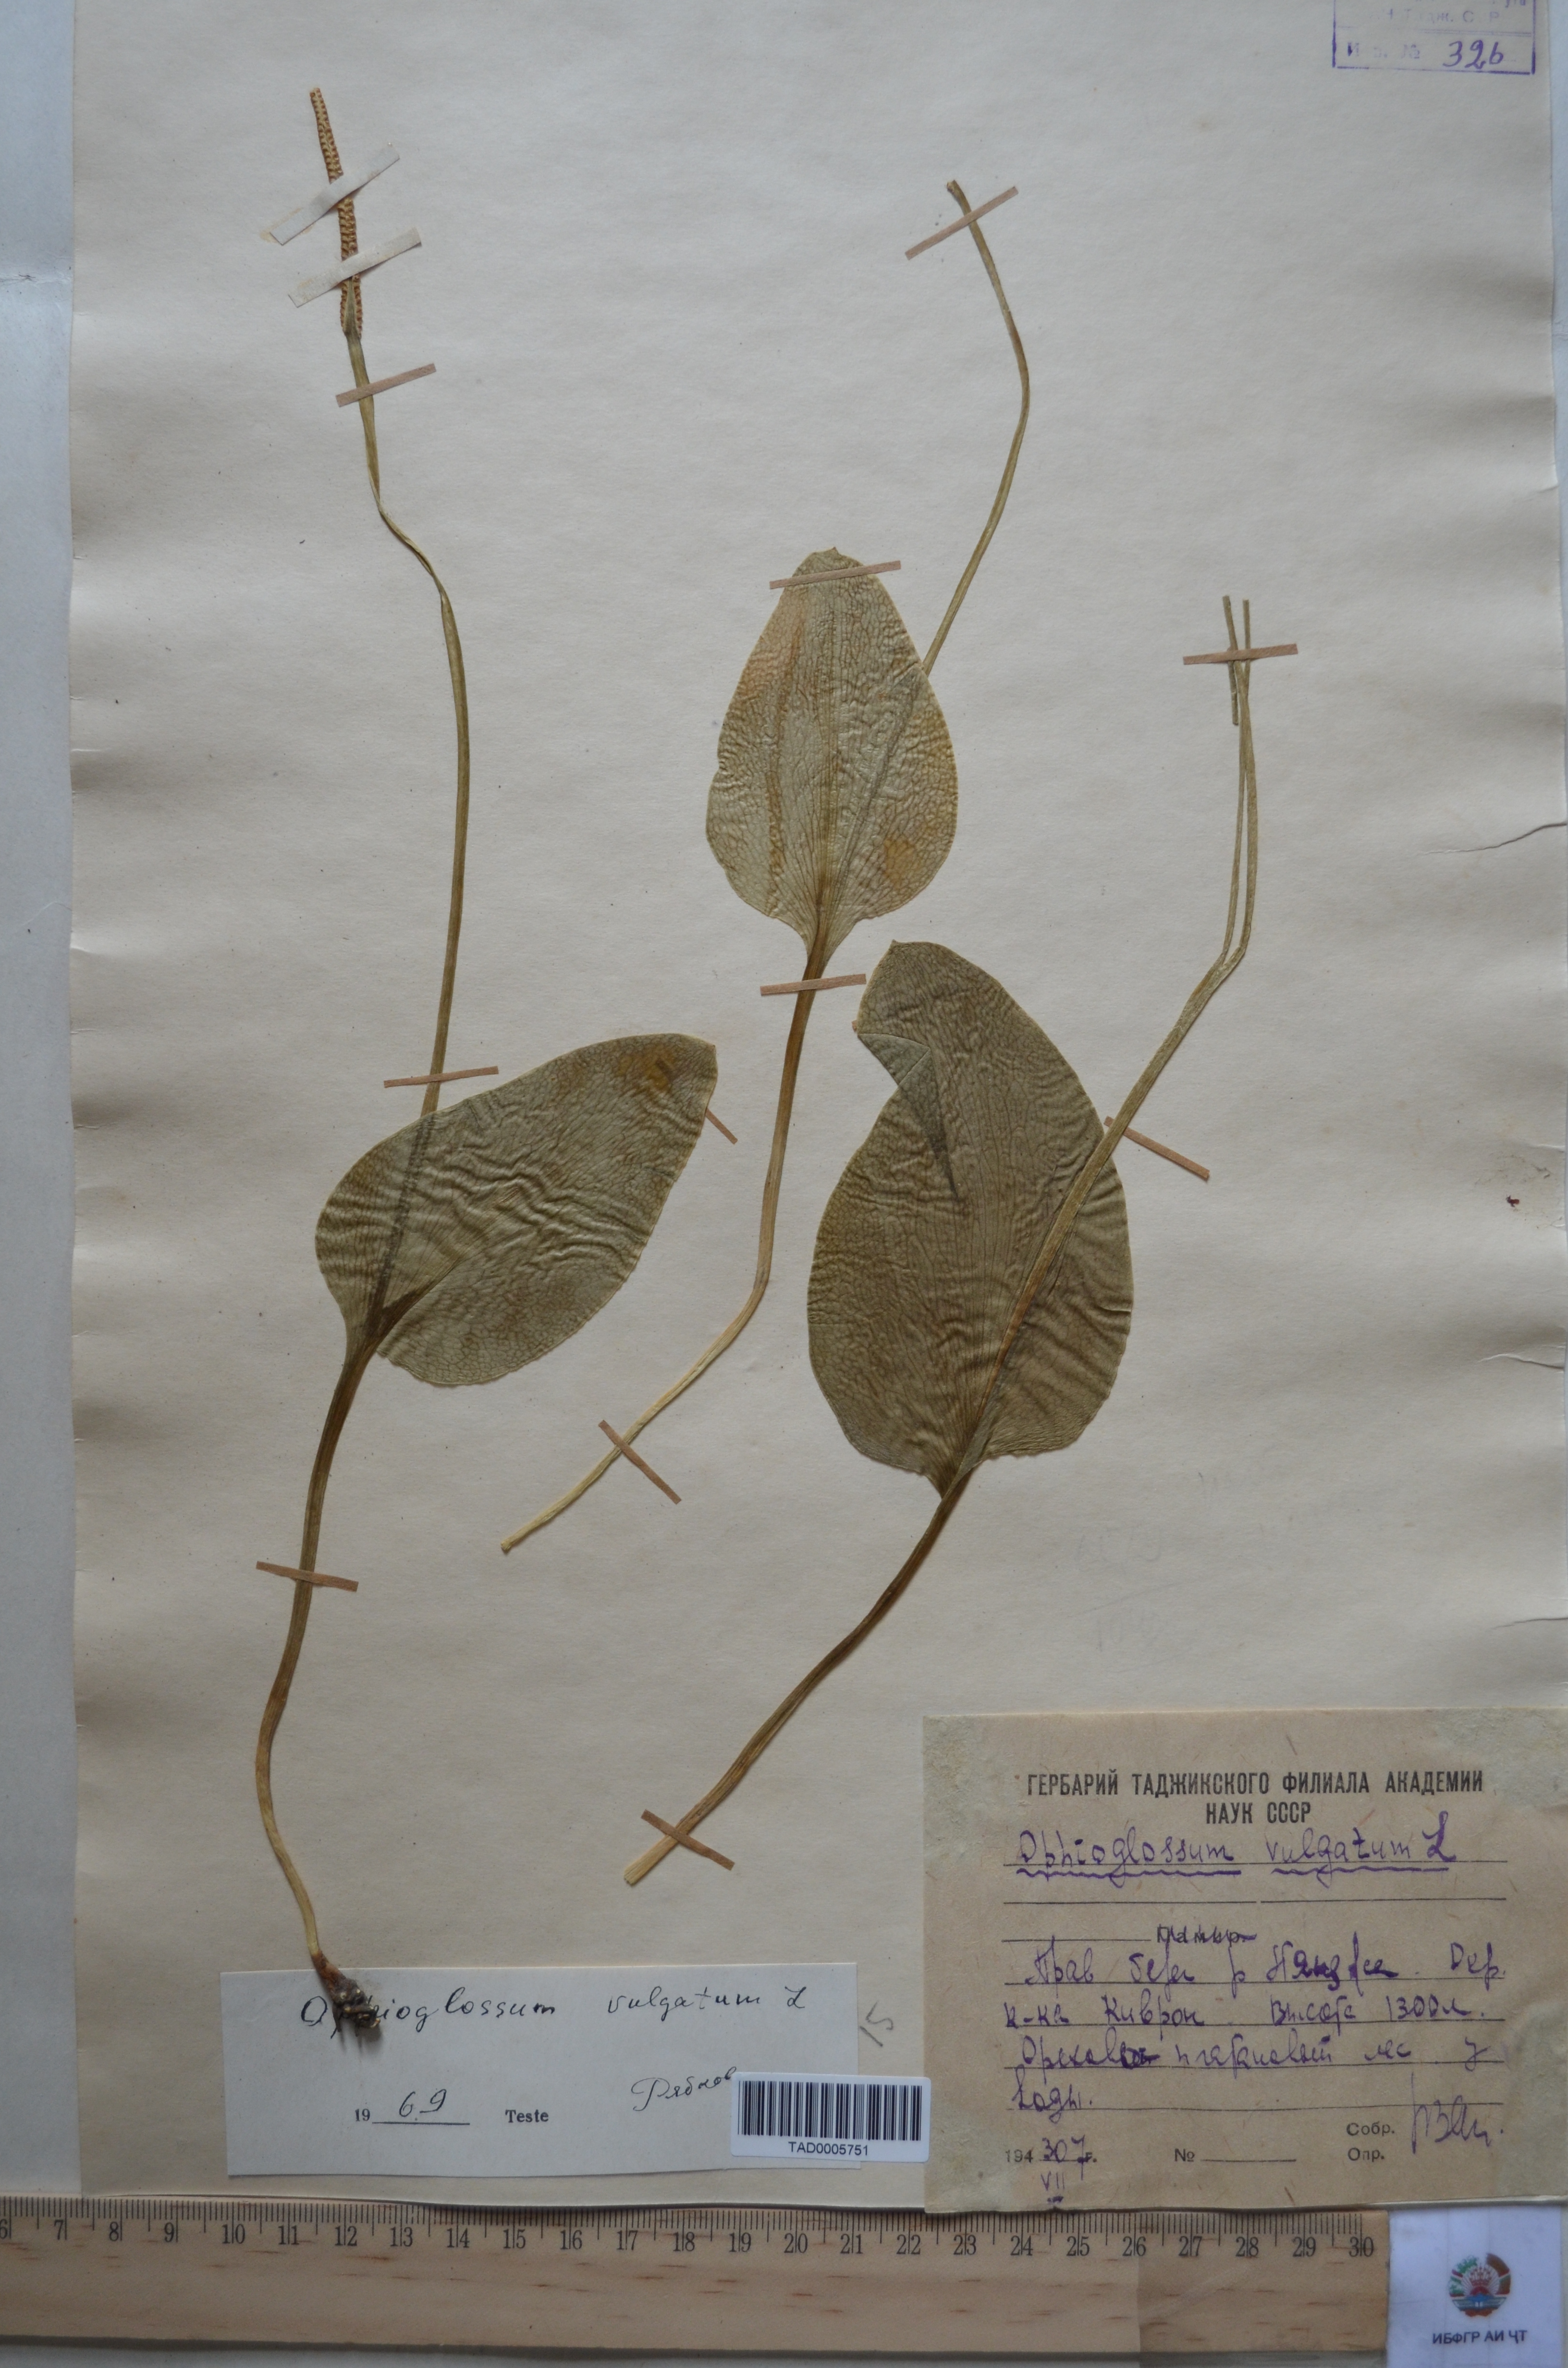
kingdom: Plantae
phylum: Tracheophyta
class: Polypodiopsida
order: Ophioglossales
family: Ophioglossaceae
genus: Ophioglossum
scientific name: Ophioglossum vulgatum
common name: Adder's-tongue
